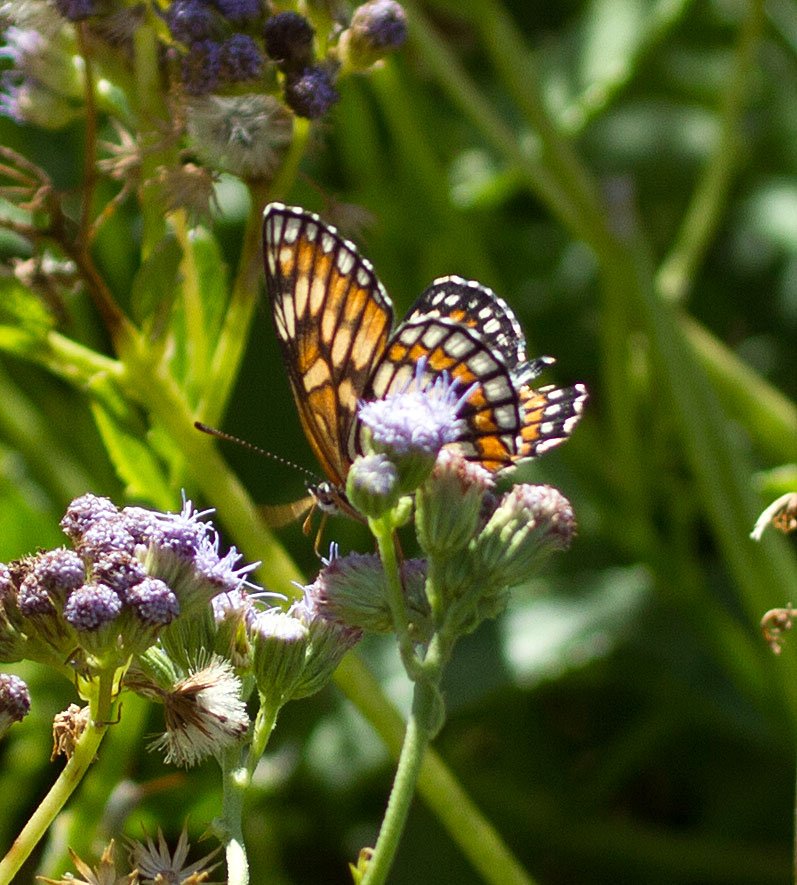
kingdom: Animalia
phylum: Arthropoda
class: Insecta
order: Lepidoptera
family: Nymphalidae
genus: Thessalia
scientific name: Thessalia theona
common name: Theona Checkerspot
